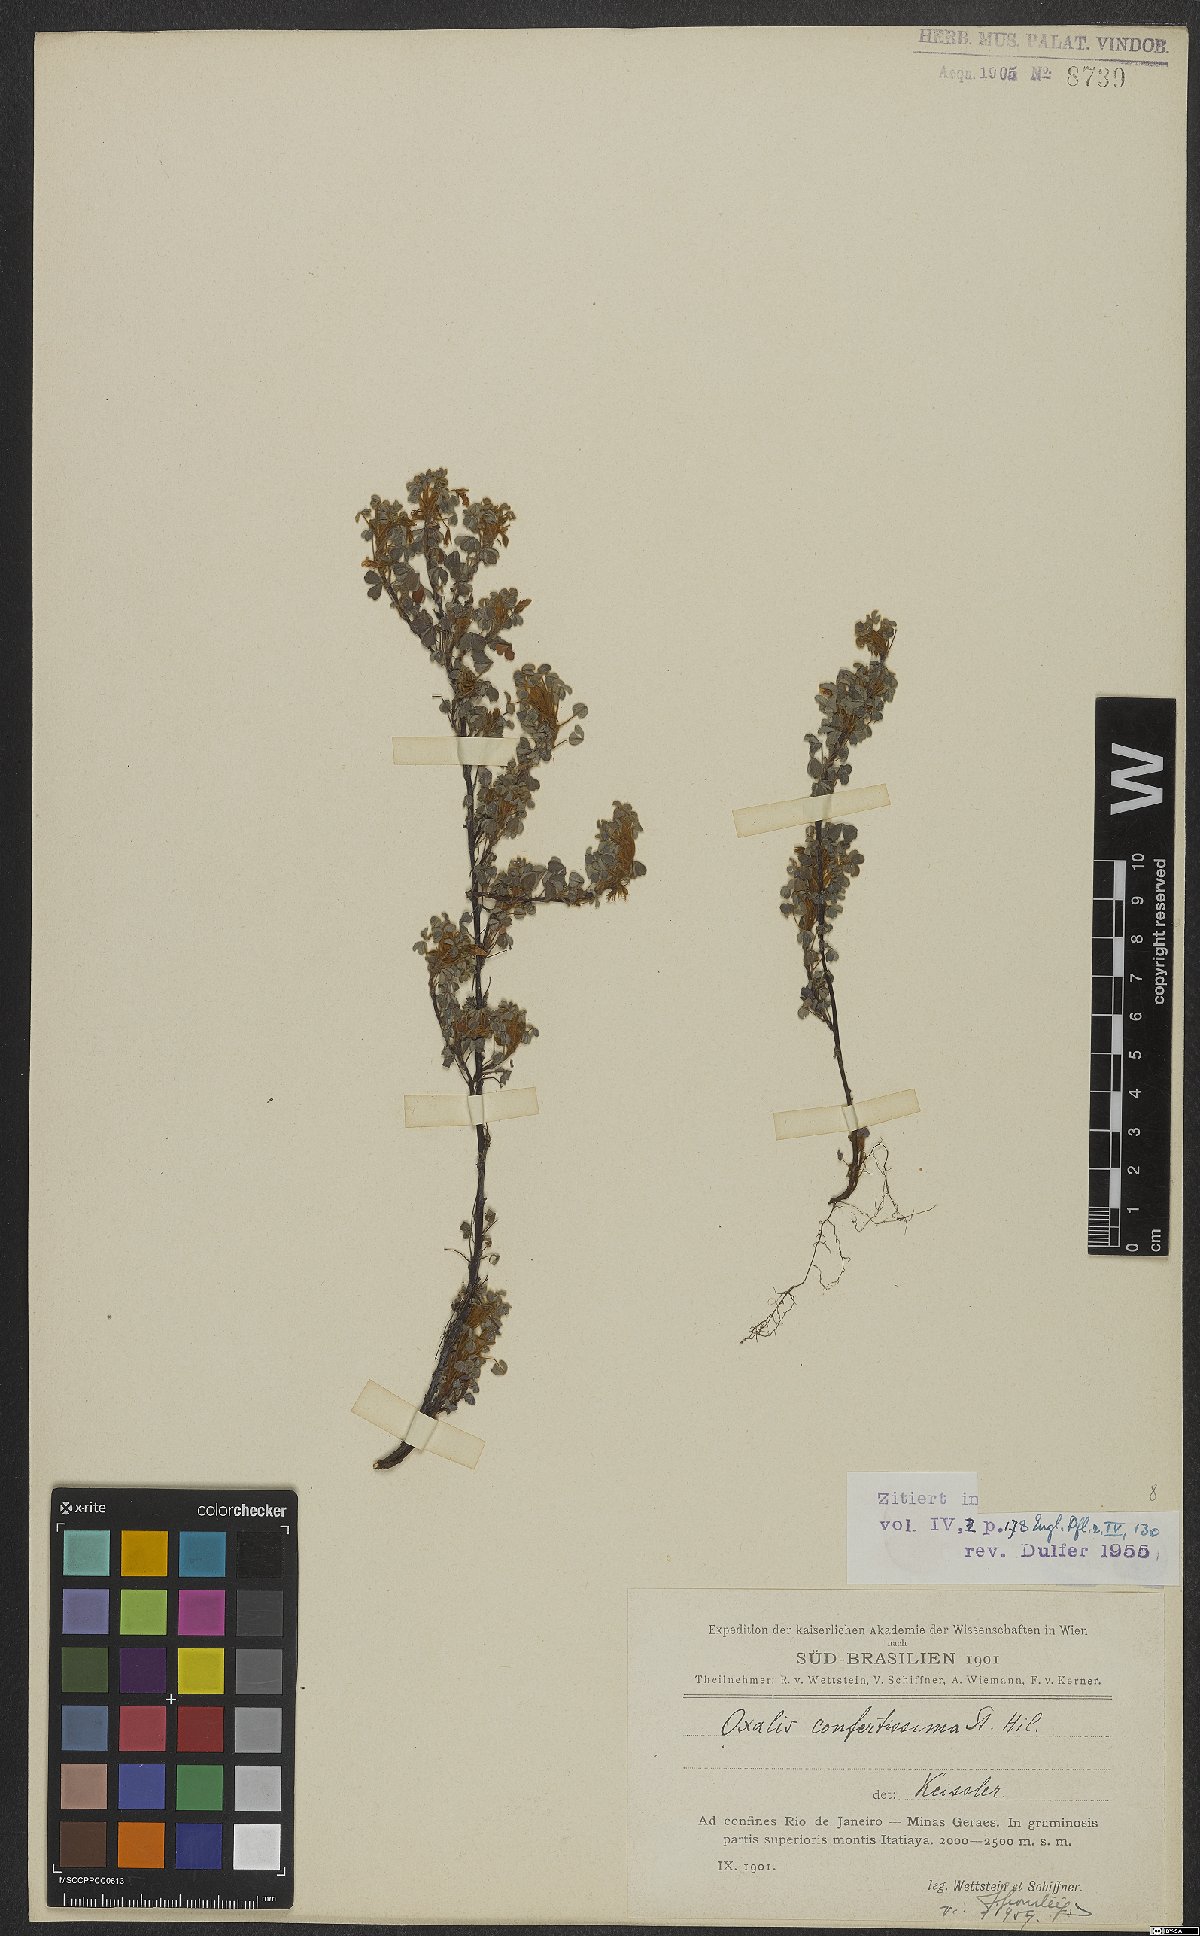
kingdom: Plantae
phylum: Tracheophyta
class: Magnoliopsida
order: Oxalidales
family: Oxalidaceae
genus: Oxalis
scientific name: Oxalis confertissima
